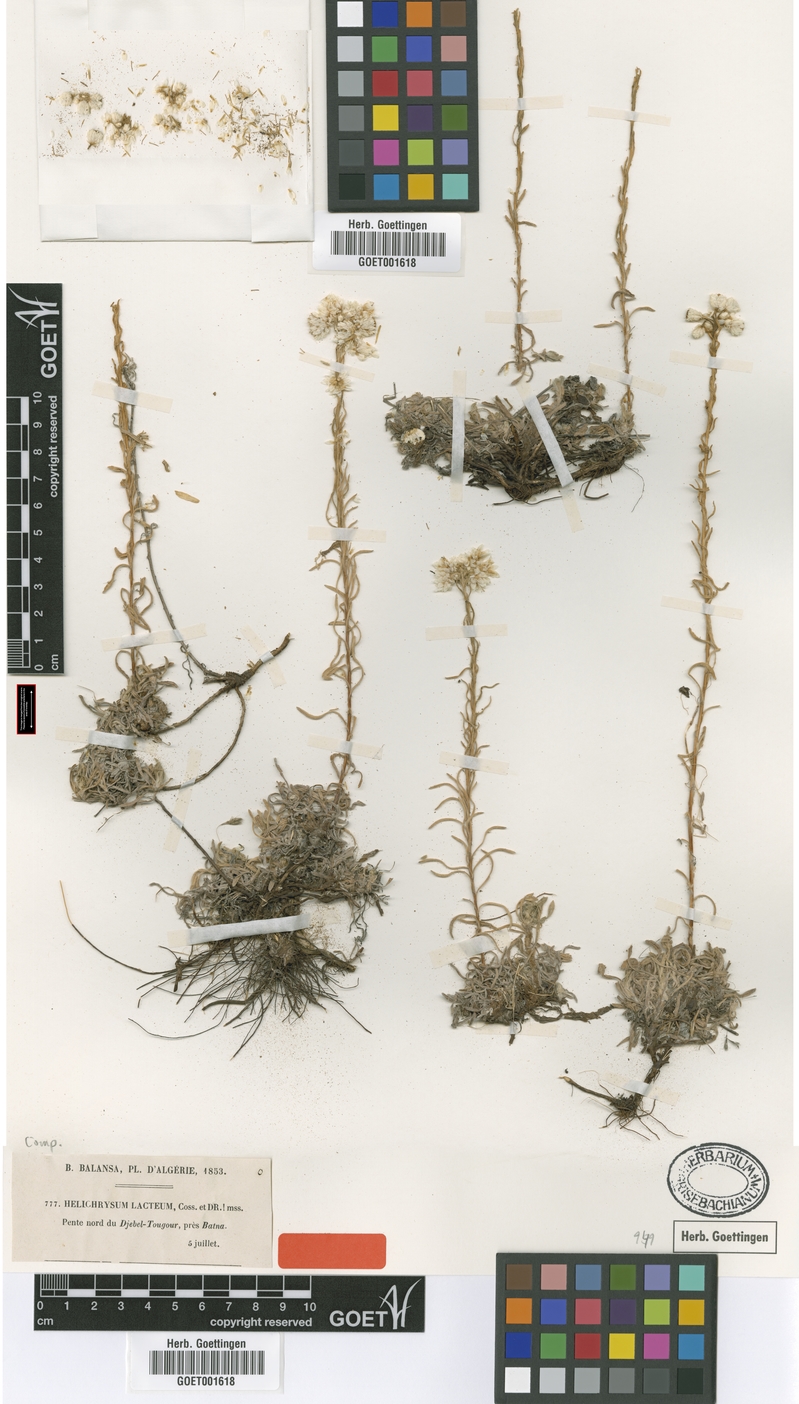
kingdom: Plantae
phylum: Tracheophyta
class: Magnoliopsida
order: Asterales
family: Asteraceae
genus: Helichrysum
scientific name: Helichrysum lacteum
